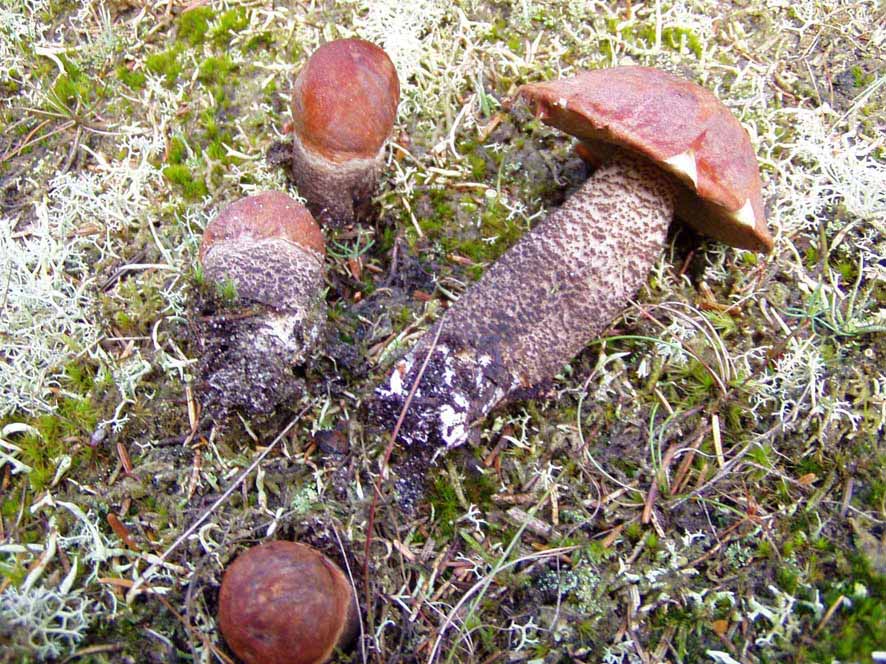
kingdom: Fungi
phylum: Basidiomycota
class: Agaricomycetes
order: Boletales
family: Boletaceae
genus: Leccinum
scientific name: Leccinum vulpinum
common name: fyrre-skælrørhat
